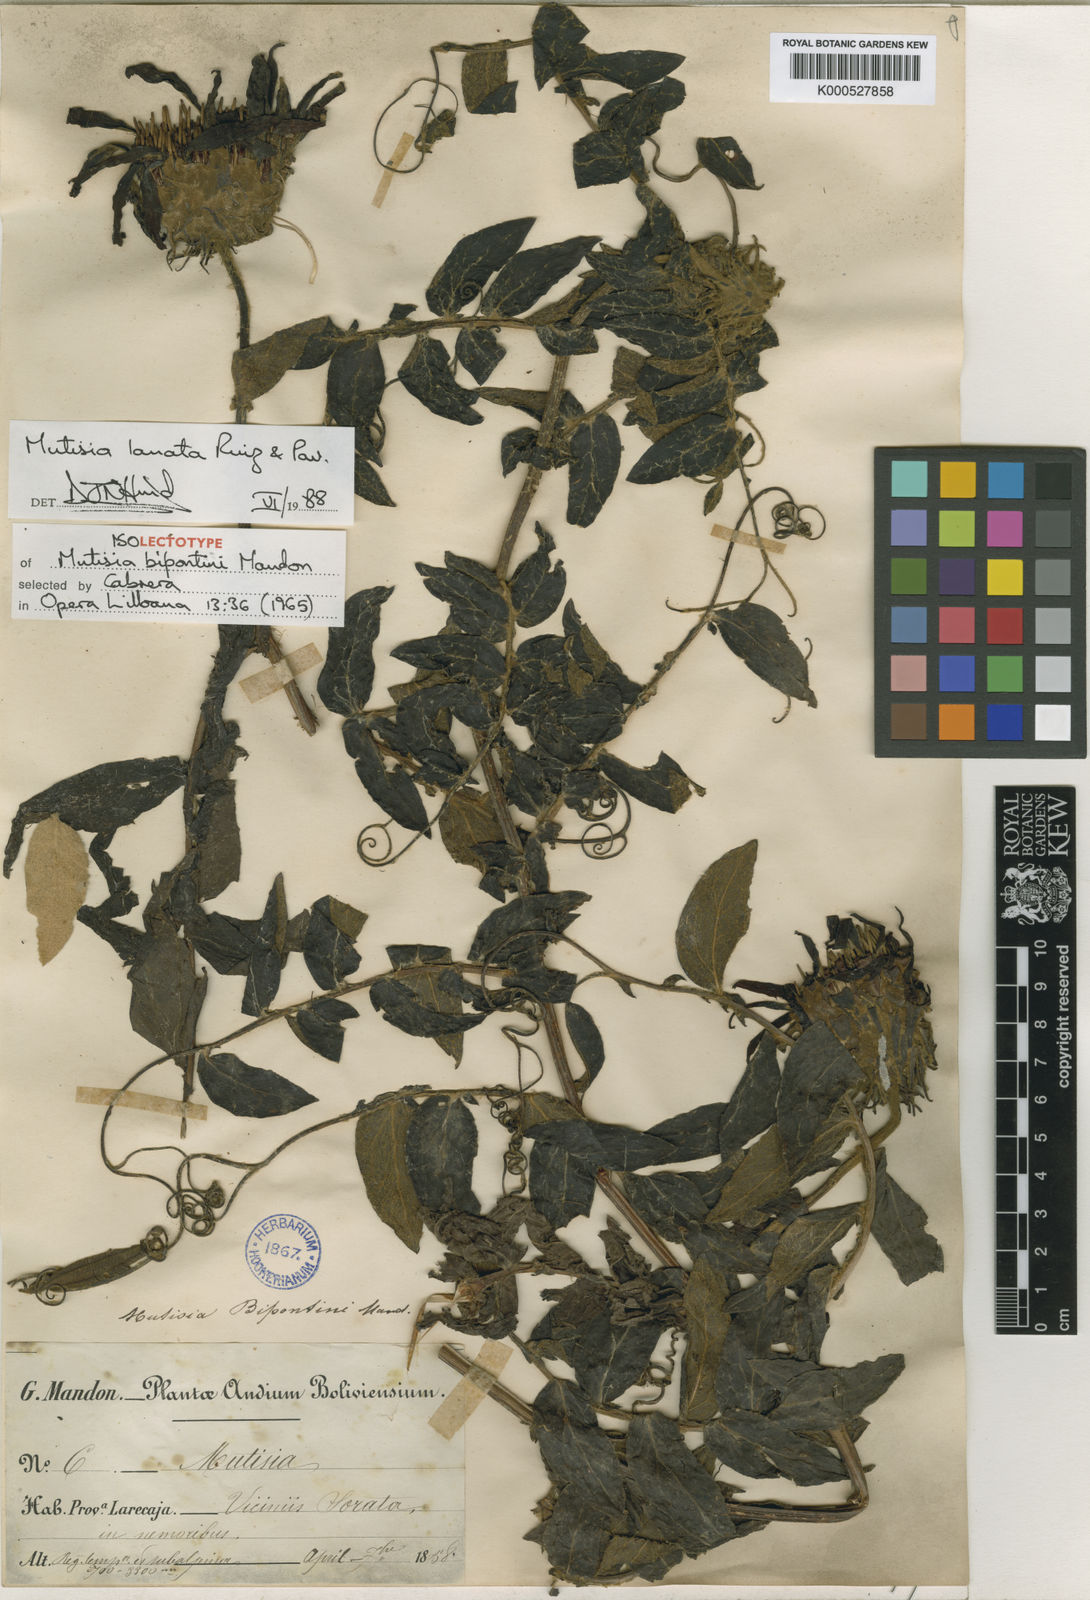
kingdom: Plantae
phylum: Tracheophyta
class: Magnoliopsida
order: Asterales
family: Asteraceae
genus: Mutisia
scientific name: Mutisia lanata
